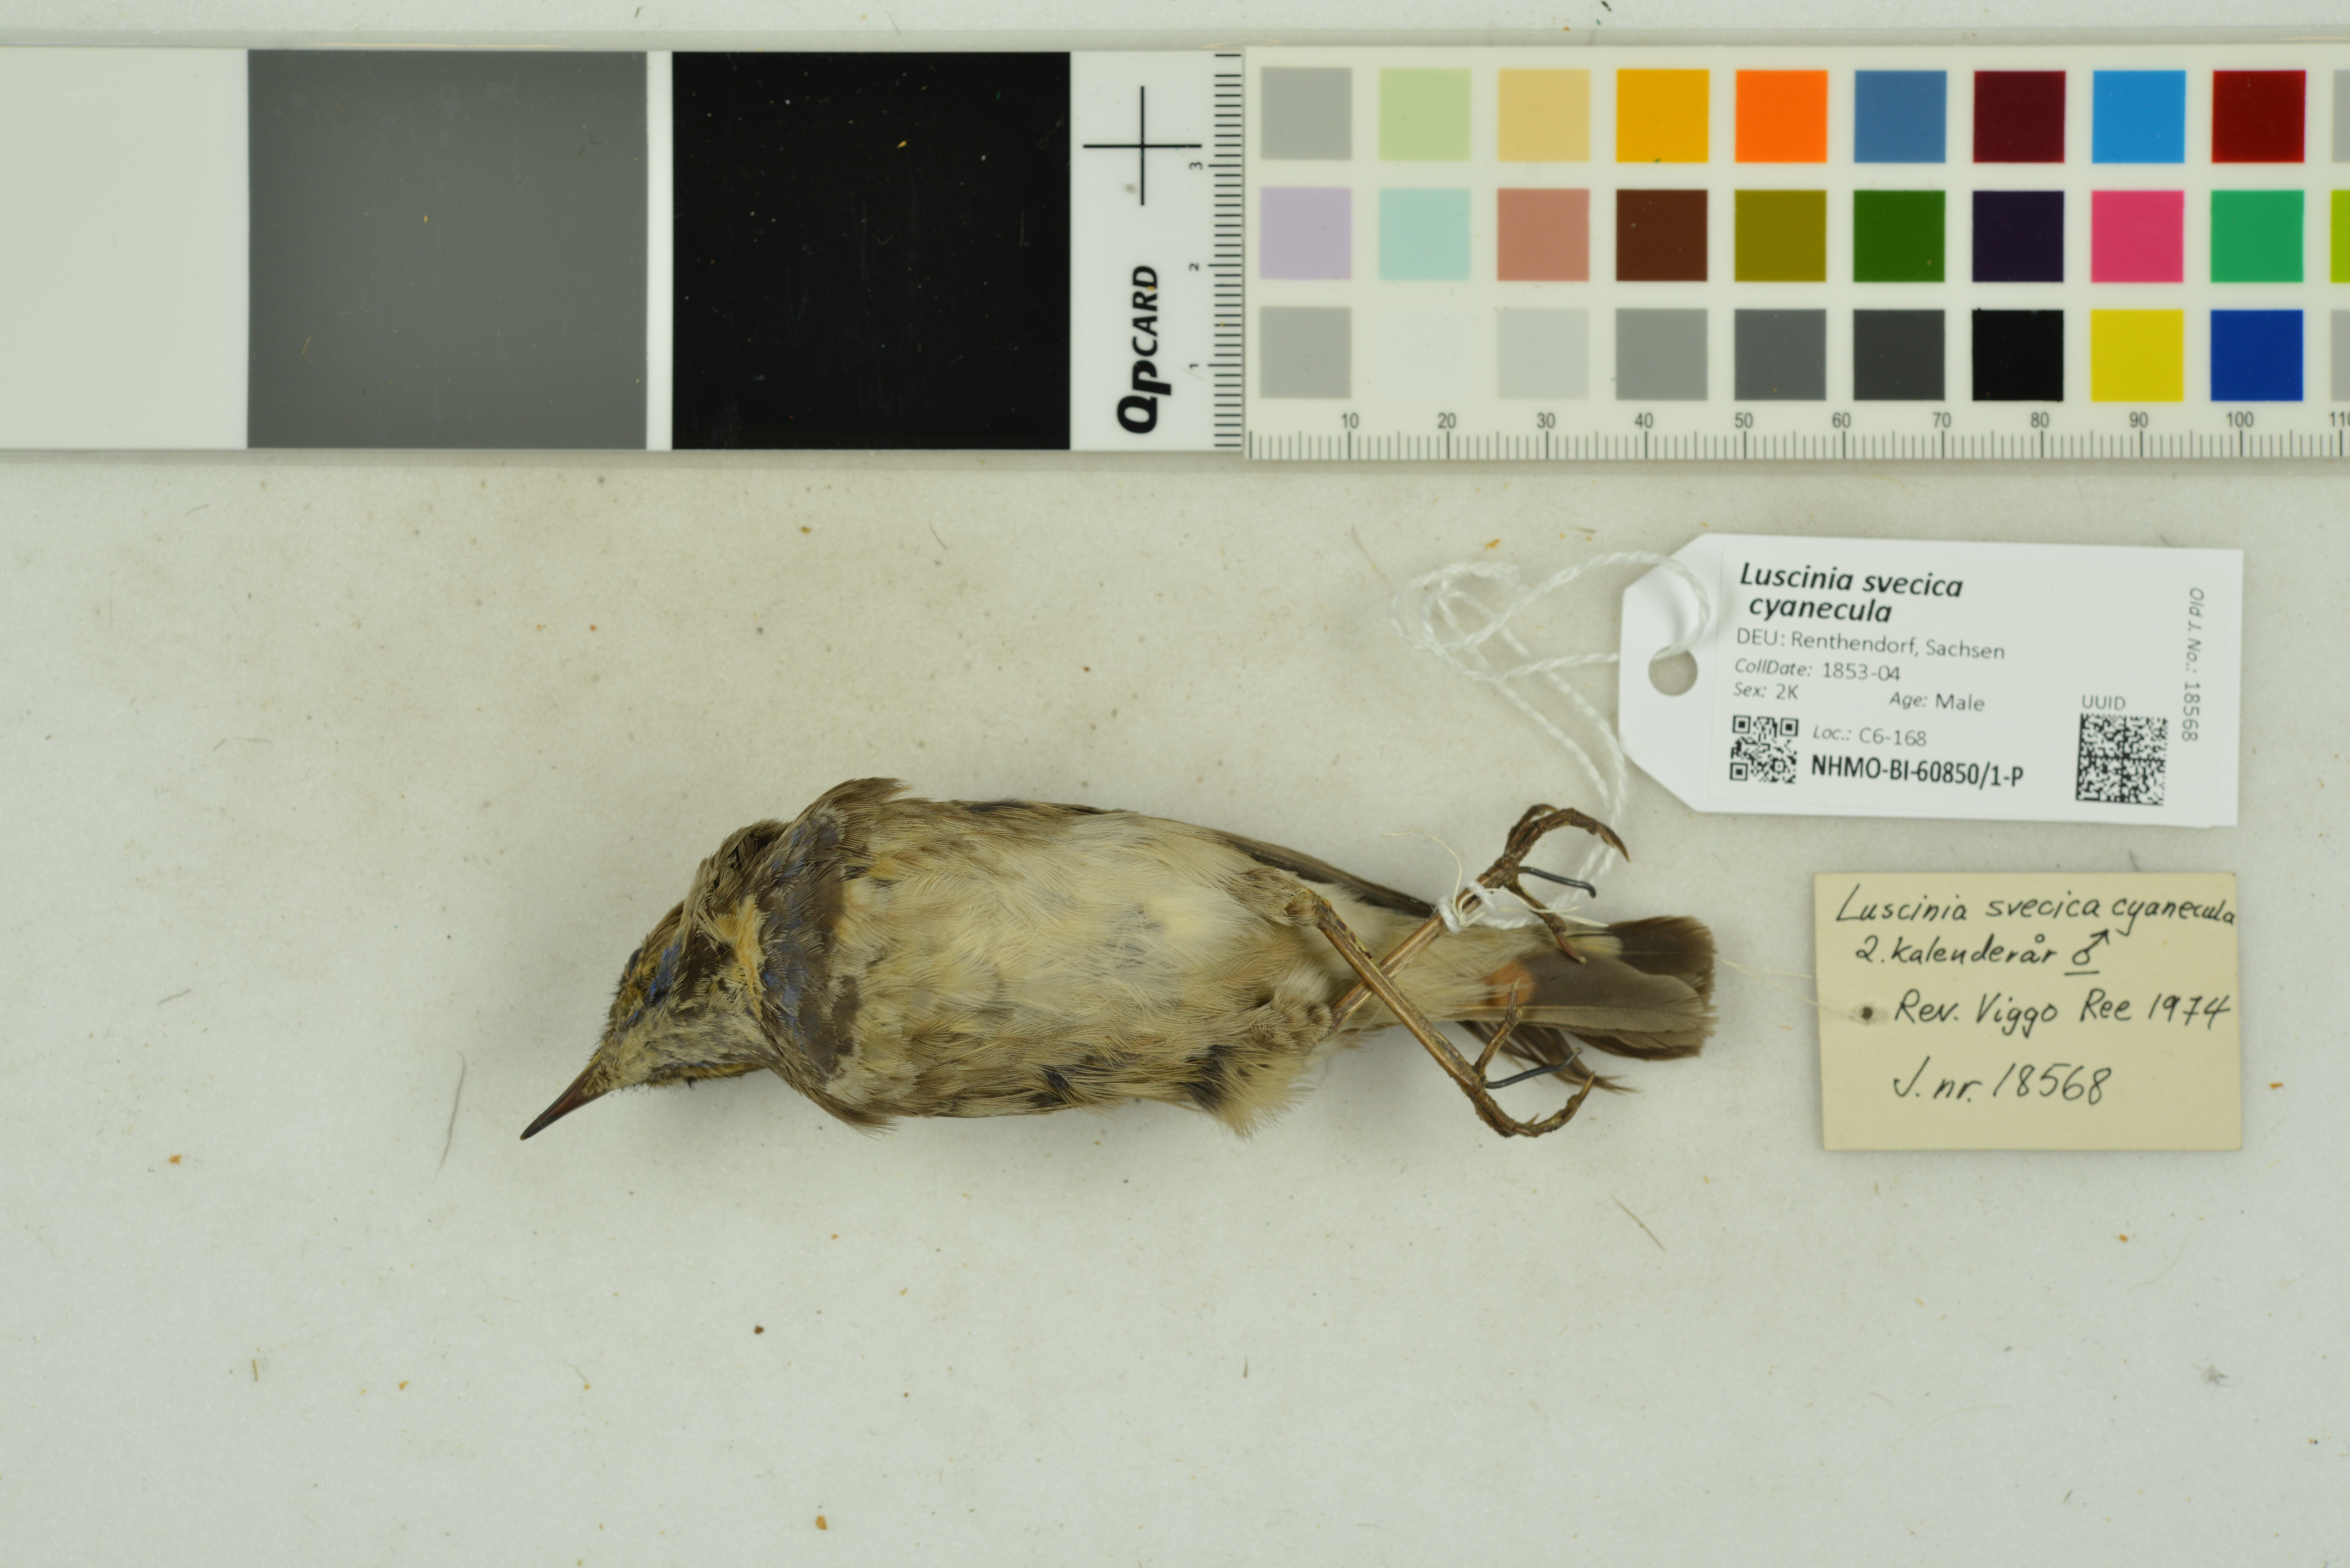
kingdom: Animalia
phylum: Chordata
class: Aves
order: Passeriformes
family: Muscicapidae
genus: Luscinia
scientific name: Luscinia svecica
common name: Bluethroat
